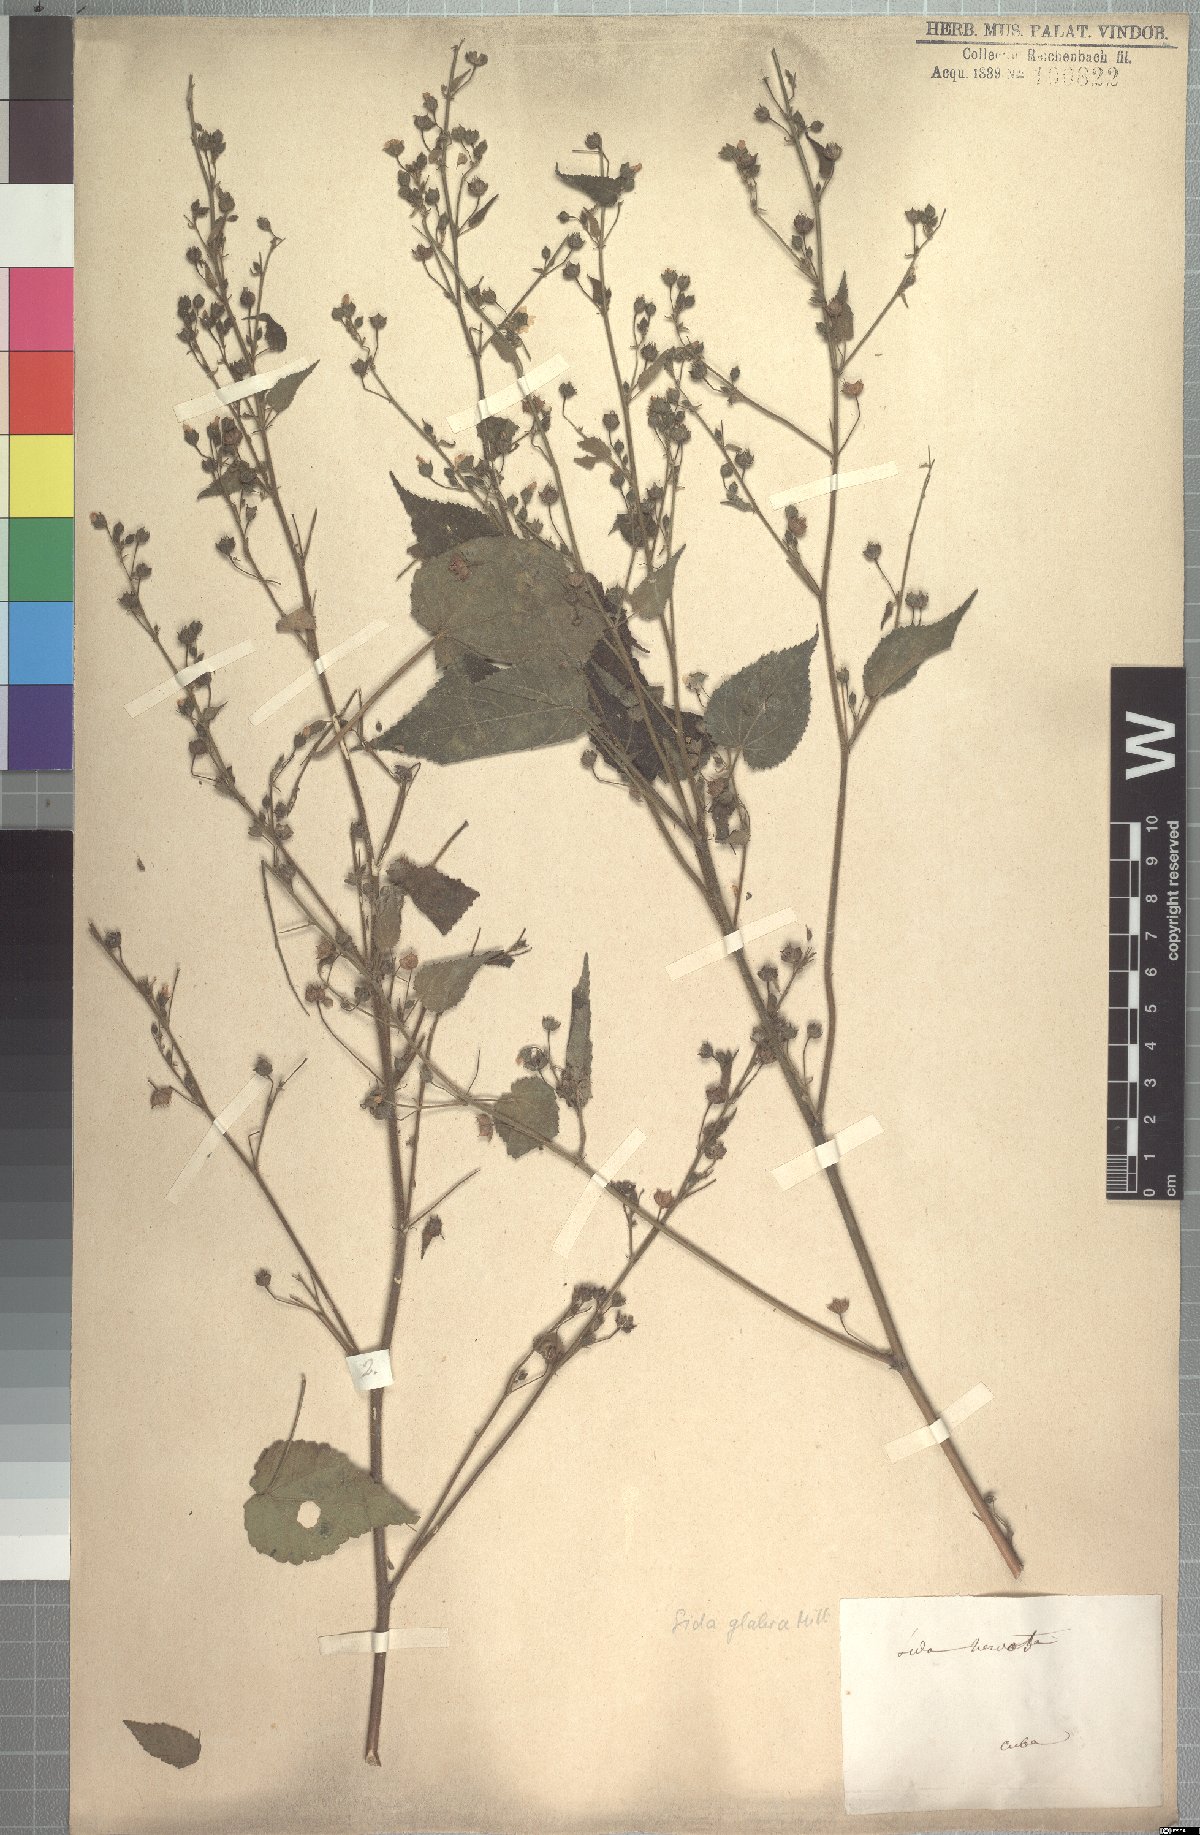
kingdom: Plantae
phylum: Tracheophyta
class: Magnoliopsida
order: Malvales
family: Malvaceae
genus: Sida
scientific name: Sida glabra
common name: Smooth fanpetals
